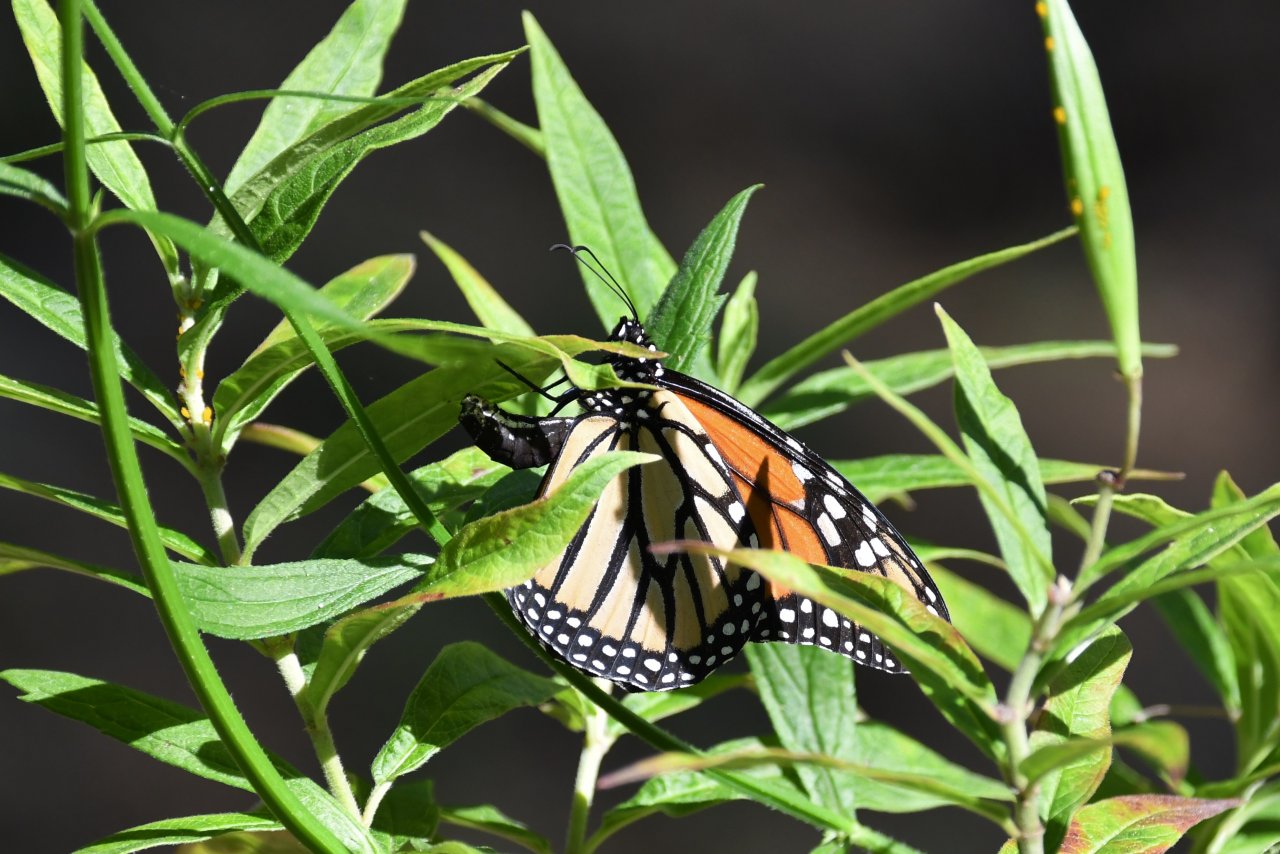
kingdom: Animalia
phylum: Arthropoda
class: Insecta
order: Lepidoptera
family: Nymphalidae
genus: Danaus
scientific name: Danaus plexippus
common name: Monarch
